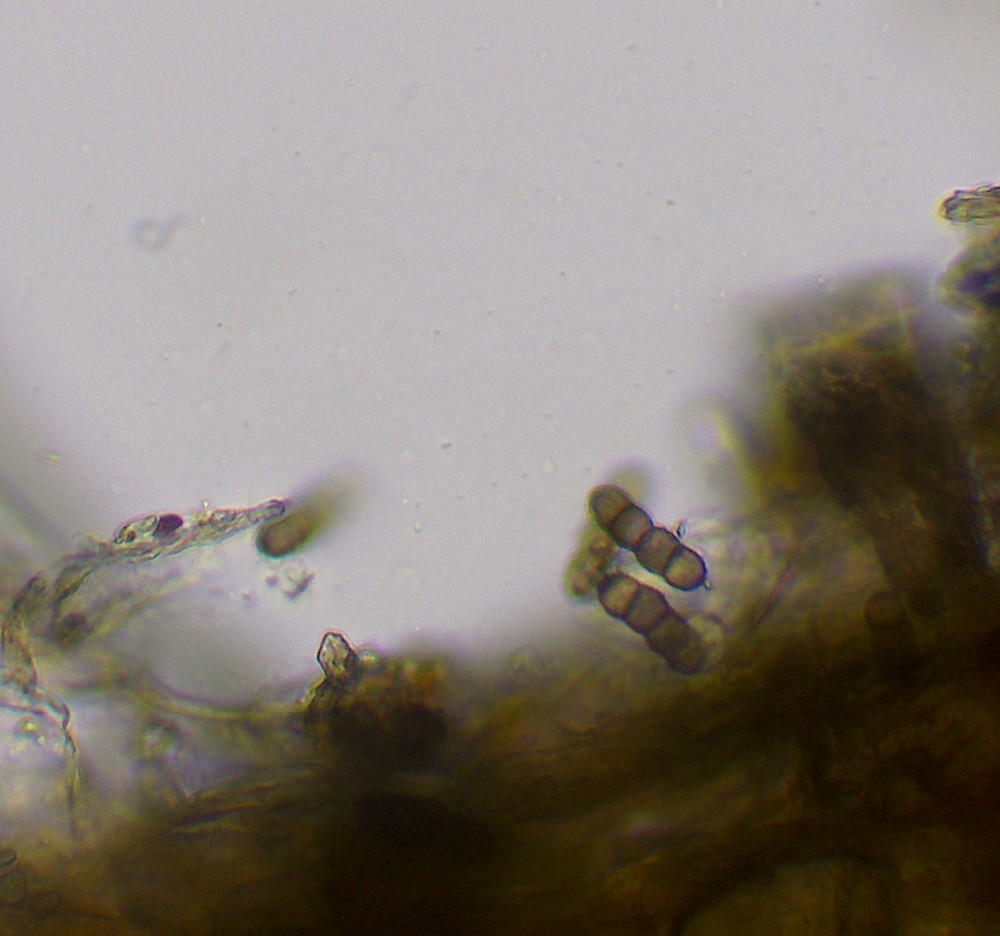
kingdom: Fungi
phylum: Ascomycota
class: Dothideomycetes
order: Pleosporales
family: Torulaceae
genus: Dendryphion
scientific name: Dendryphion comosum
